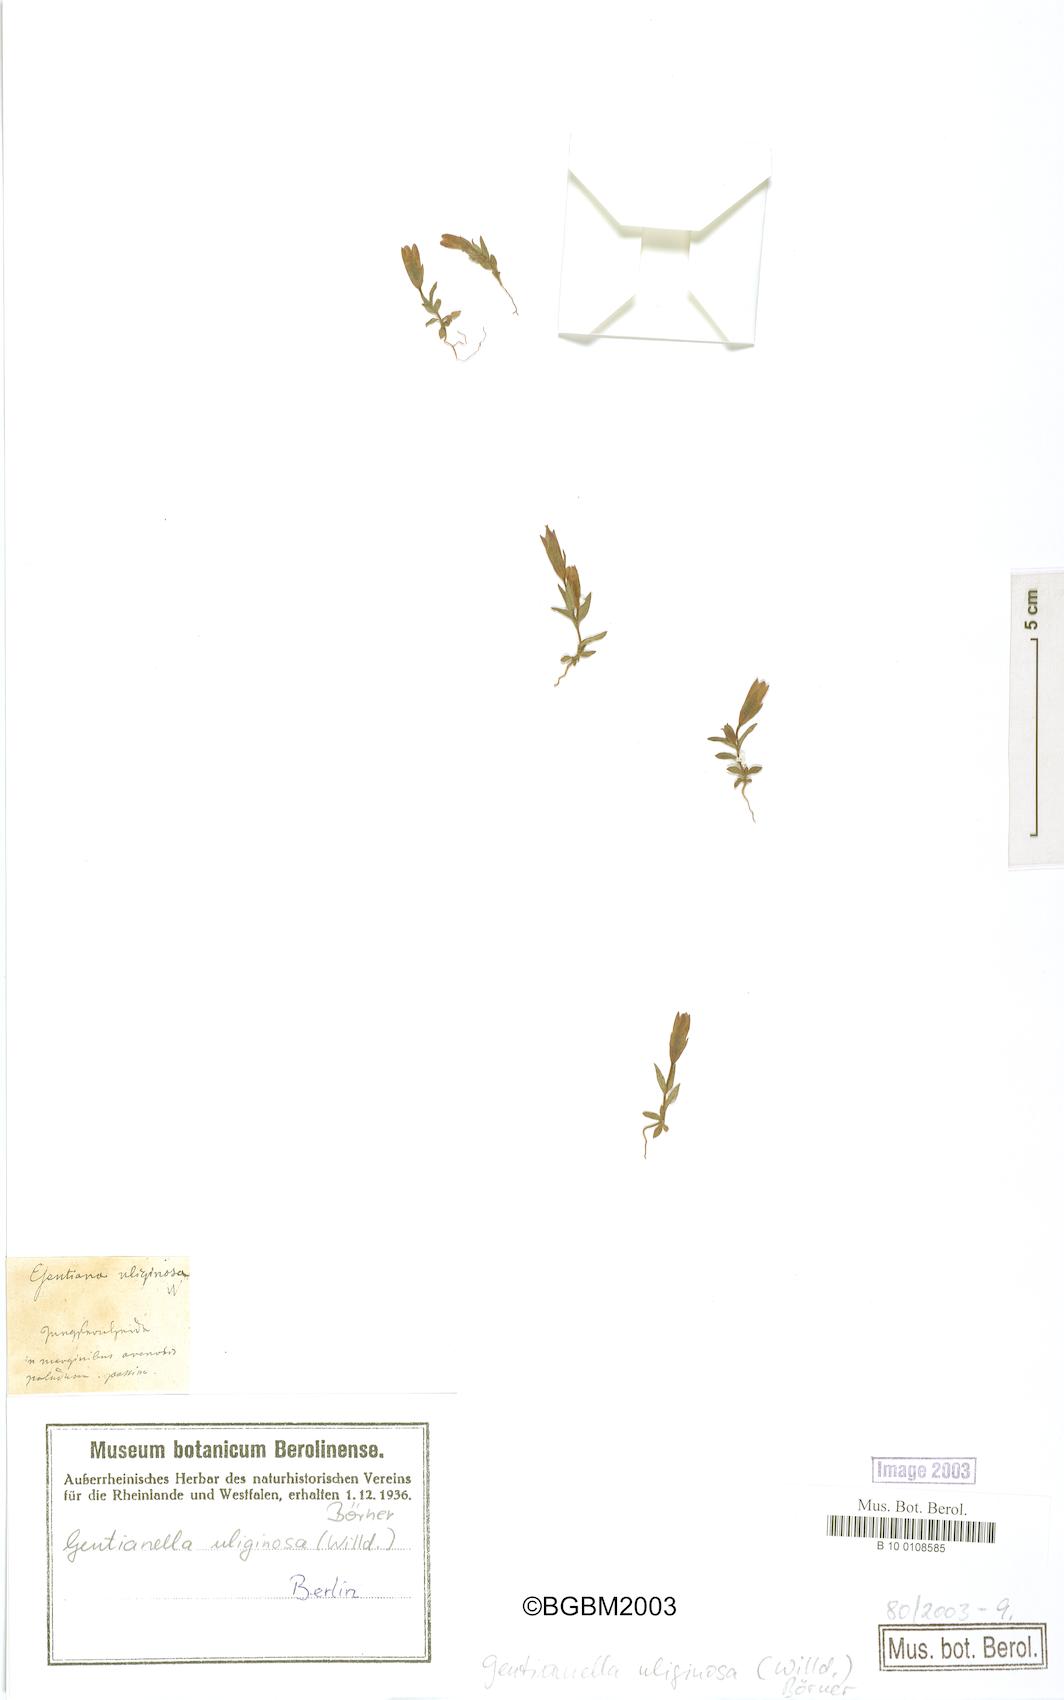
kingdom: Plantae
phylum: Tracheophyta
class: Magnoliopsida
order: Gentianales
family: Gentianaceae
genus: Gentianella
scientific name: Gentianella uliginosa
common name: Dune gentian
